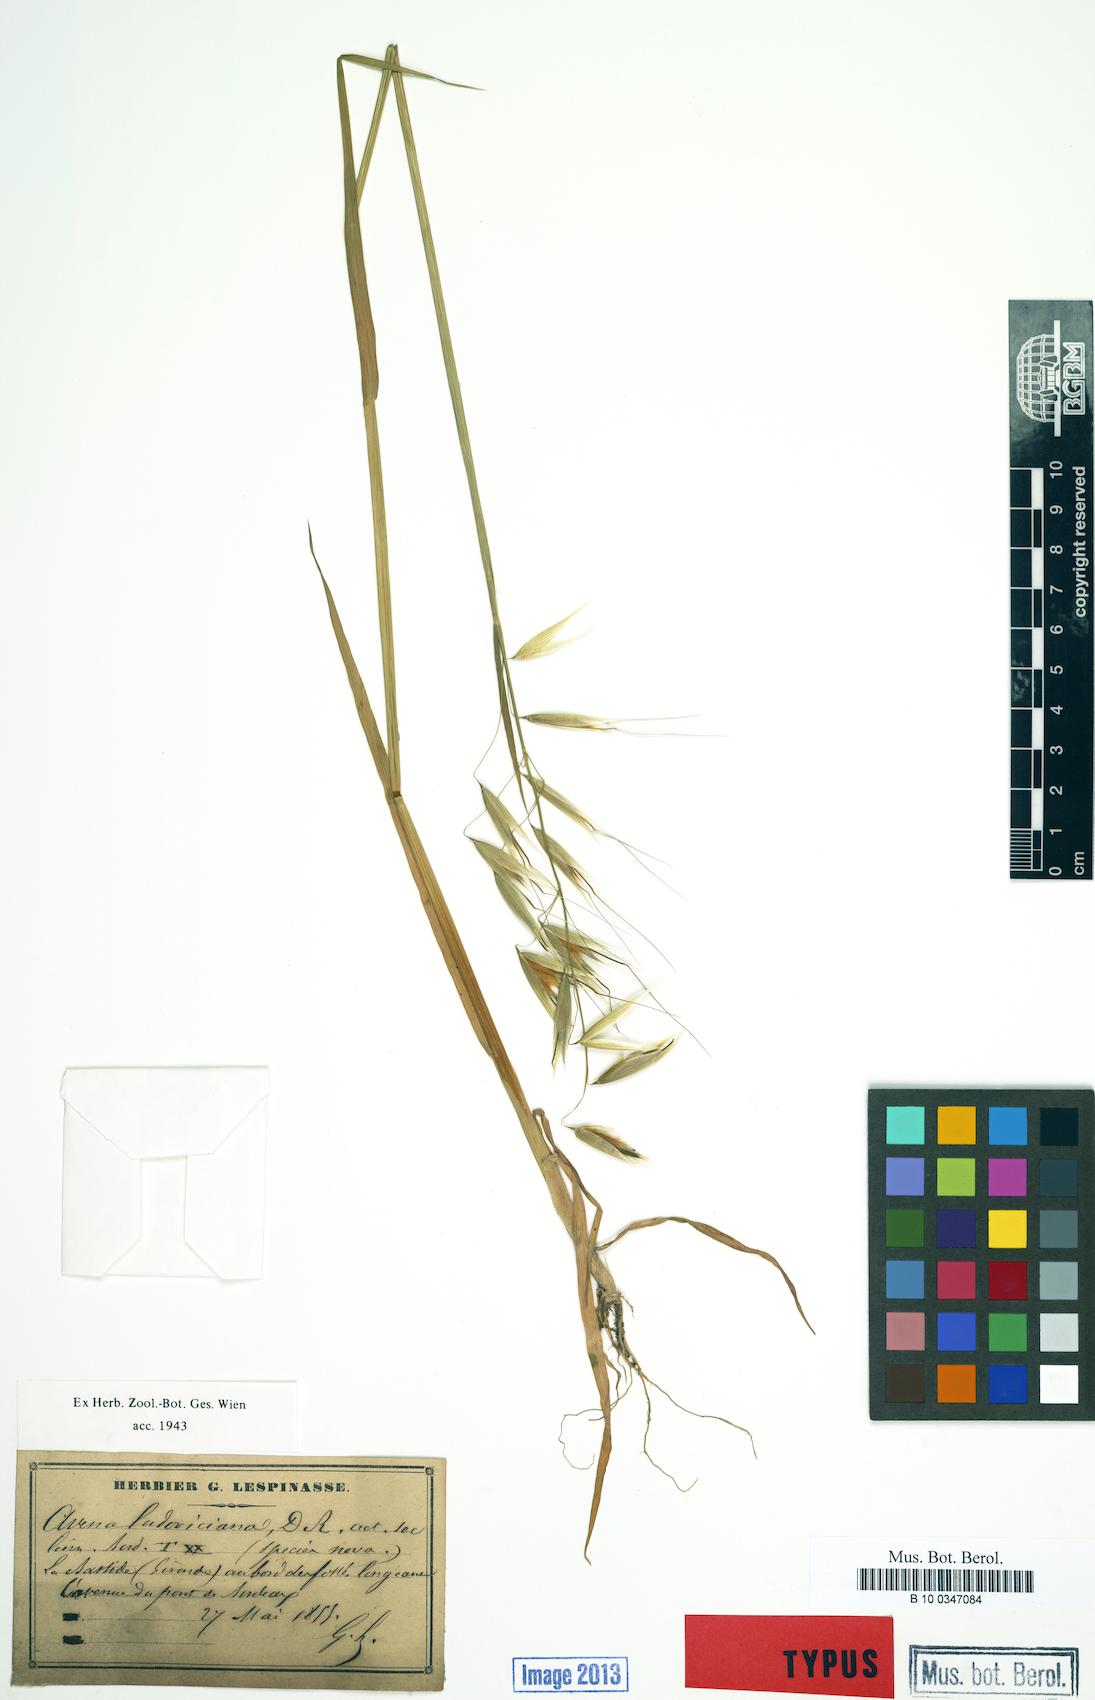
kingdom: Plantae
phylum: Tracheophyta
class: Liliopsida
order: Poales
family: Poaceae
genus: Avena
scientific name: Avena sterilis
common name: Animated oat
